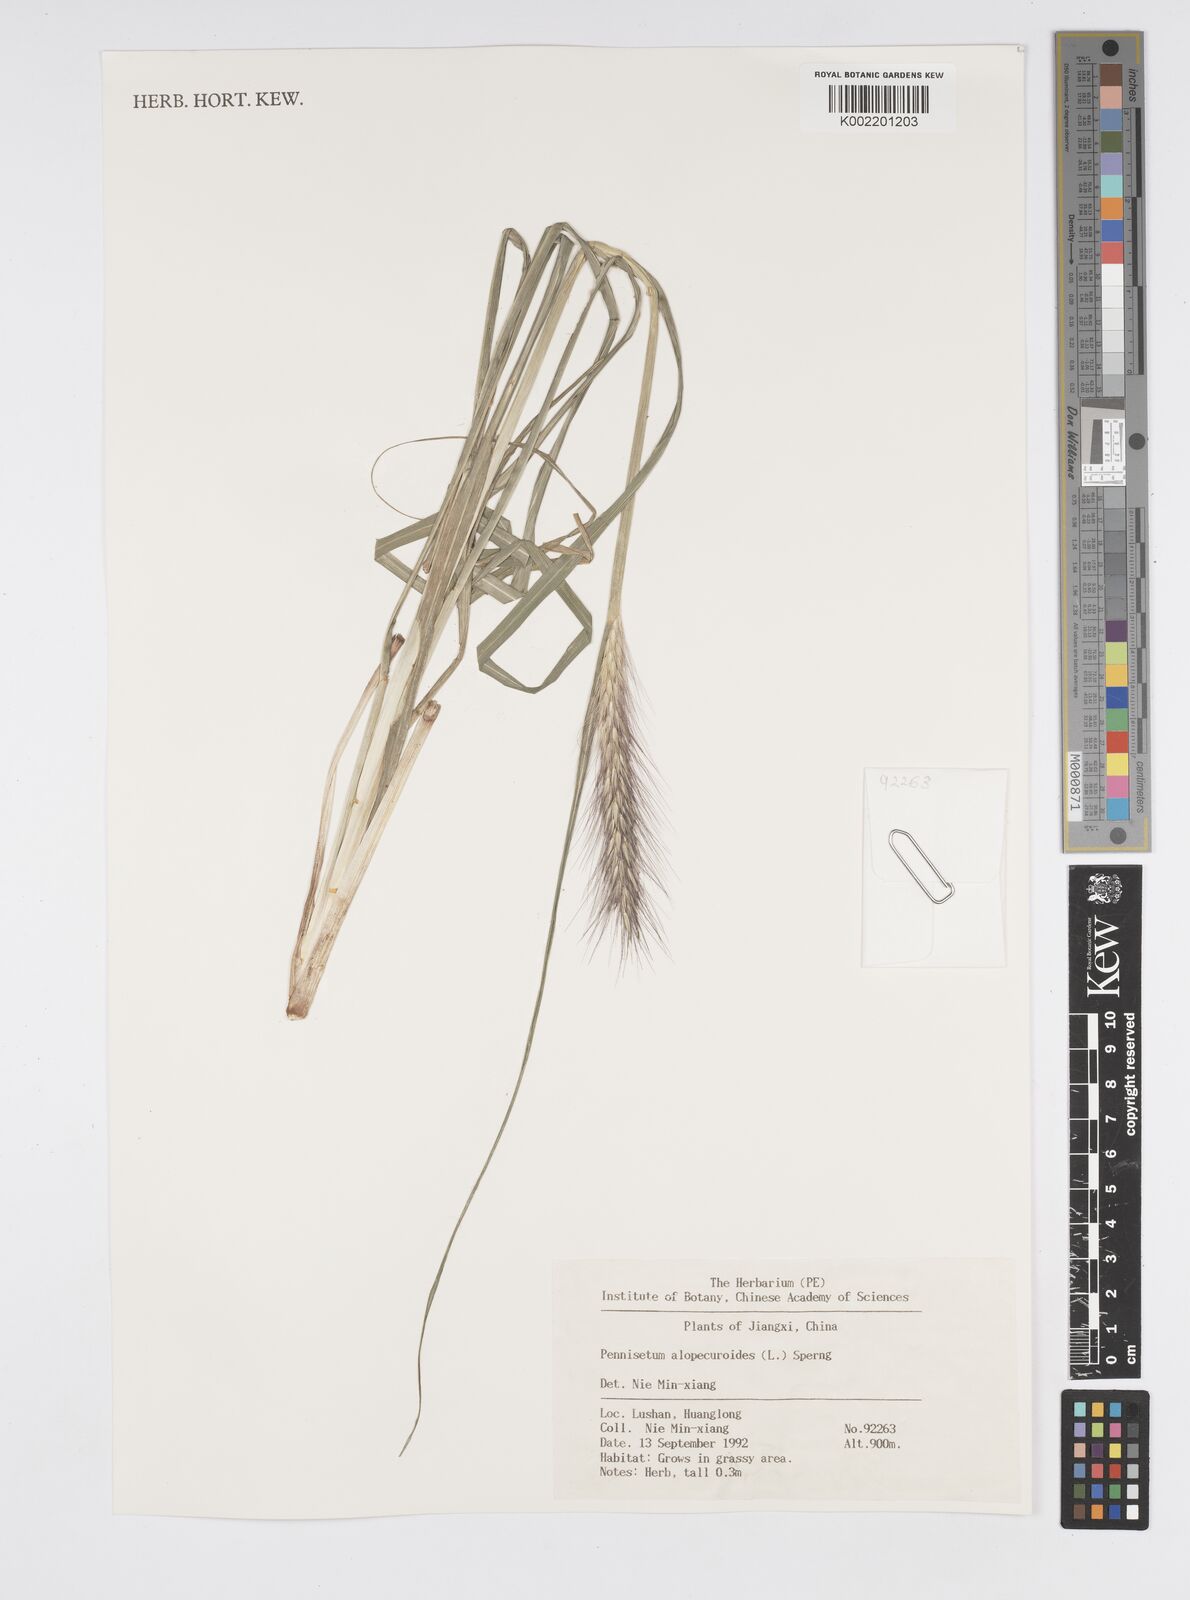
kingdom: Plantae
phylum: Tracheophyta
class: Liliopsida
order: Poales
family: Poaceae
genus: Cenchrus
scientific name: Cenchrus alopecuroides
